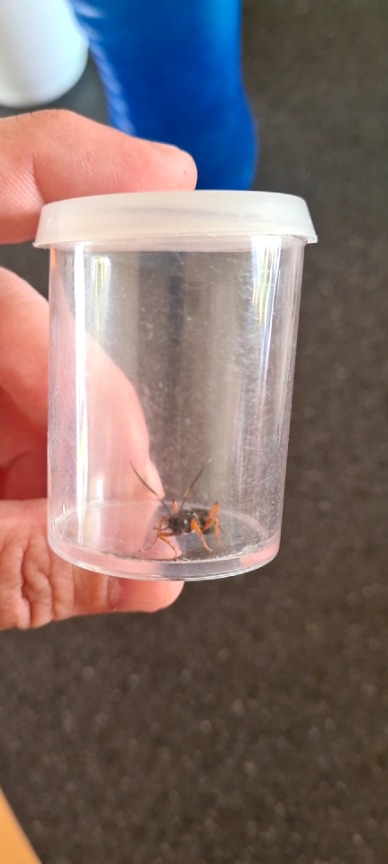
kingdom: Animalia
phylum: Arthropoda
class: Insecta
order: Hymenoptera
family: Ichneumonidae
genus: Diphyus
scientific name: Diphyus quadripunctorius
